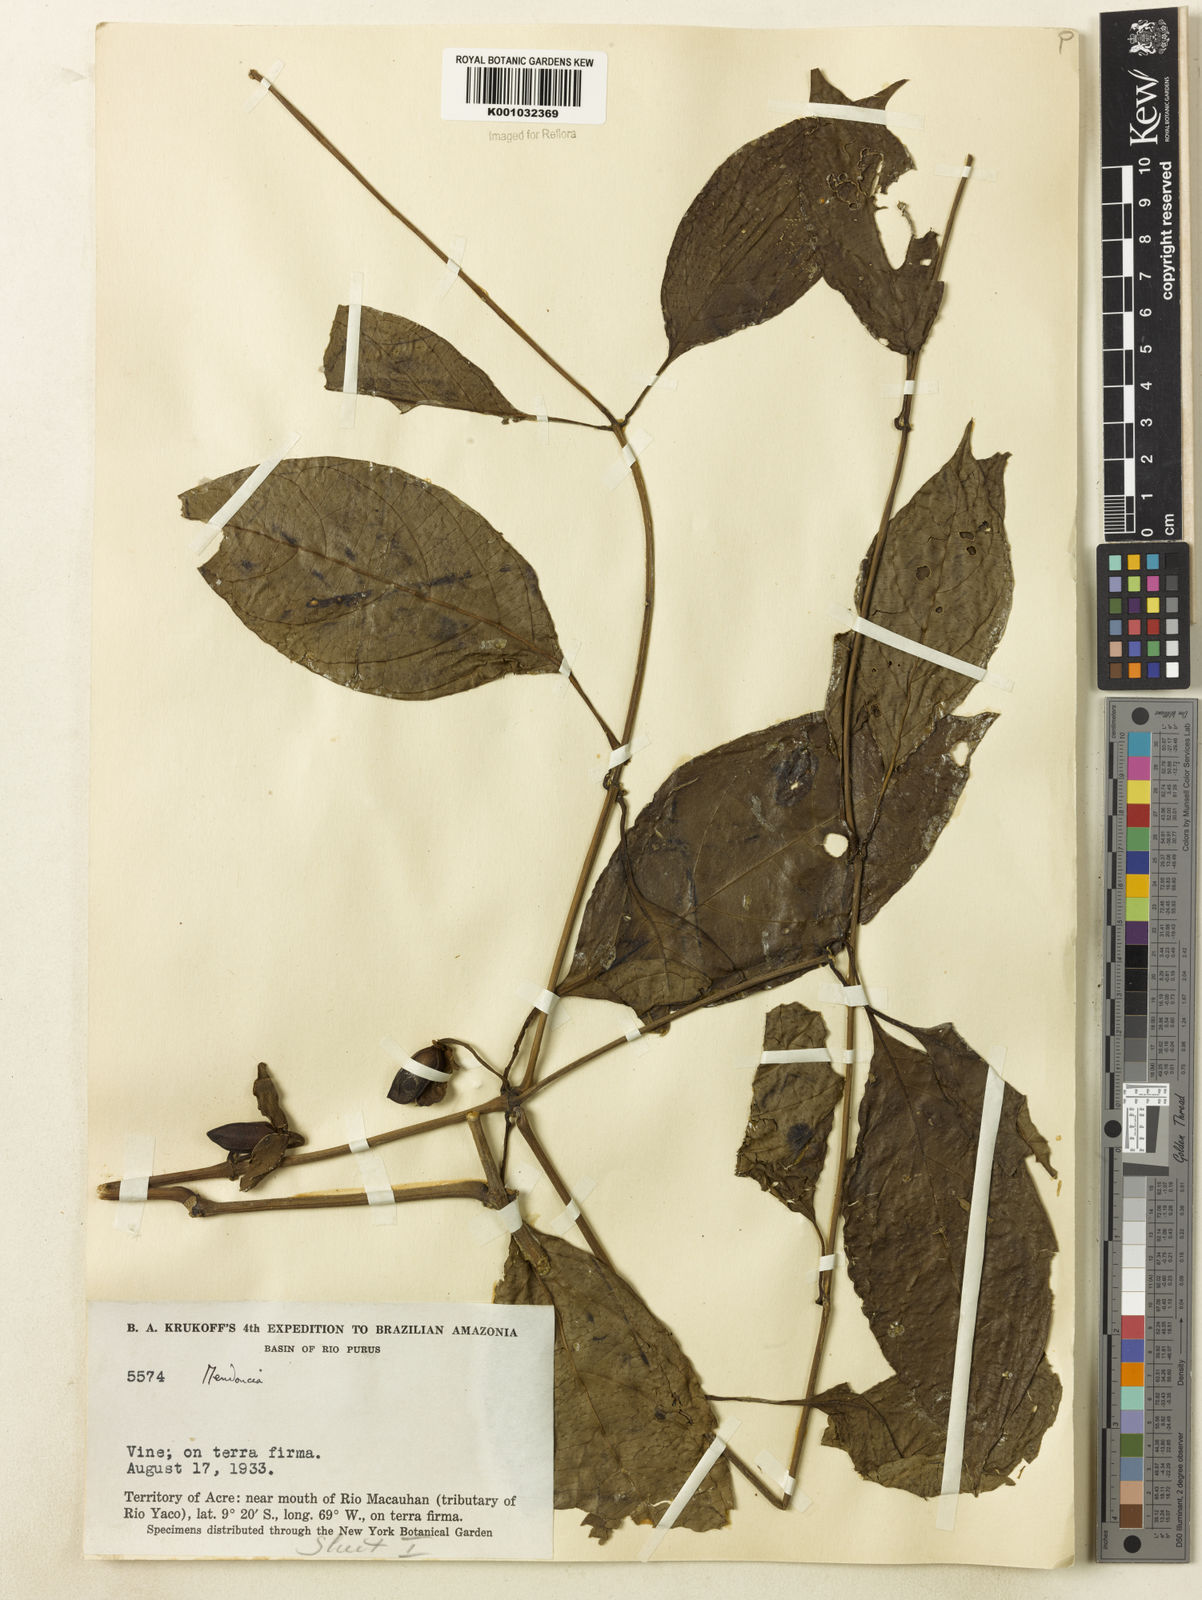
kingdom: Plantae
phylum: Tracheophyta
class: Magnoliopsida
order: Lamiales
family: Acanthaceae
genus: Mendoncia
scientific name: Mendoncia
